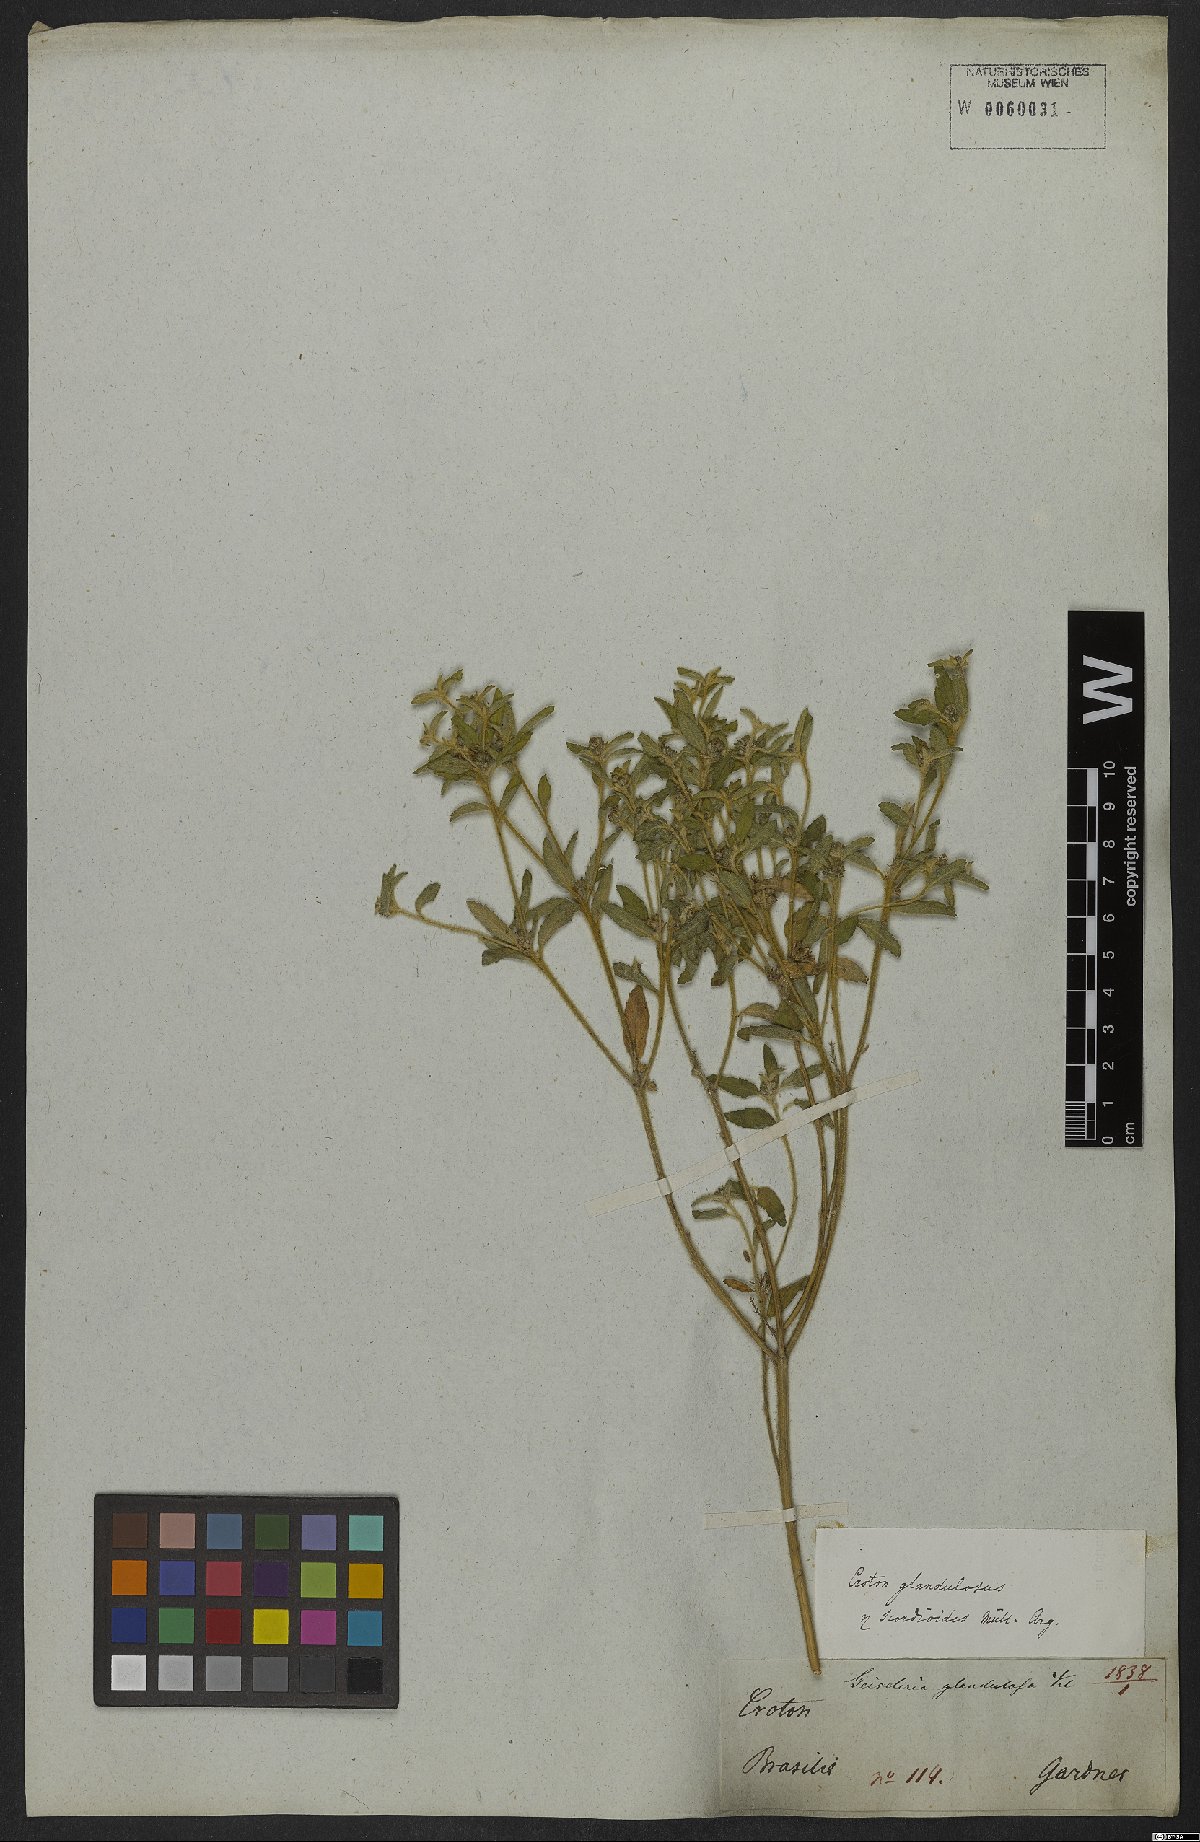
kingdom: Plantae
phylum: Tracheophyta
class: Magnoliopsida
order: Malpighiales
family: Euphorbiaceae
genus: Croton
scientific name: Croton glandulosus
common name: Tropic croton
